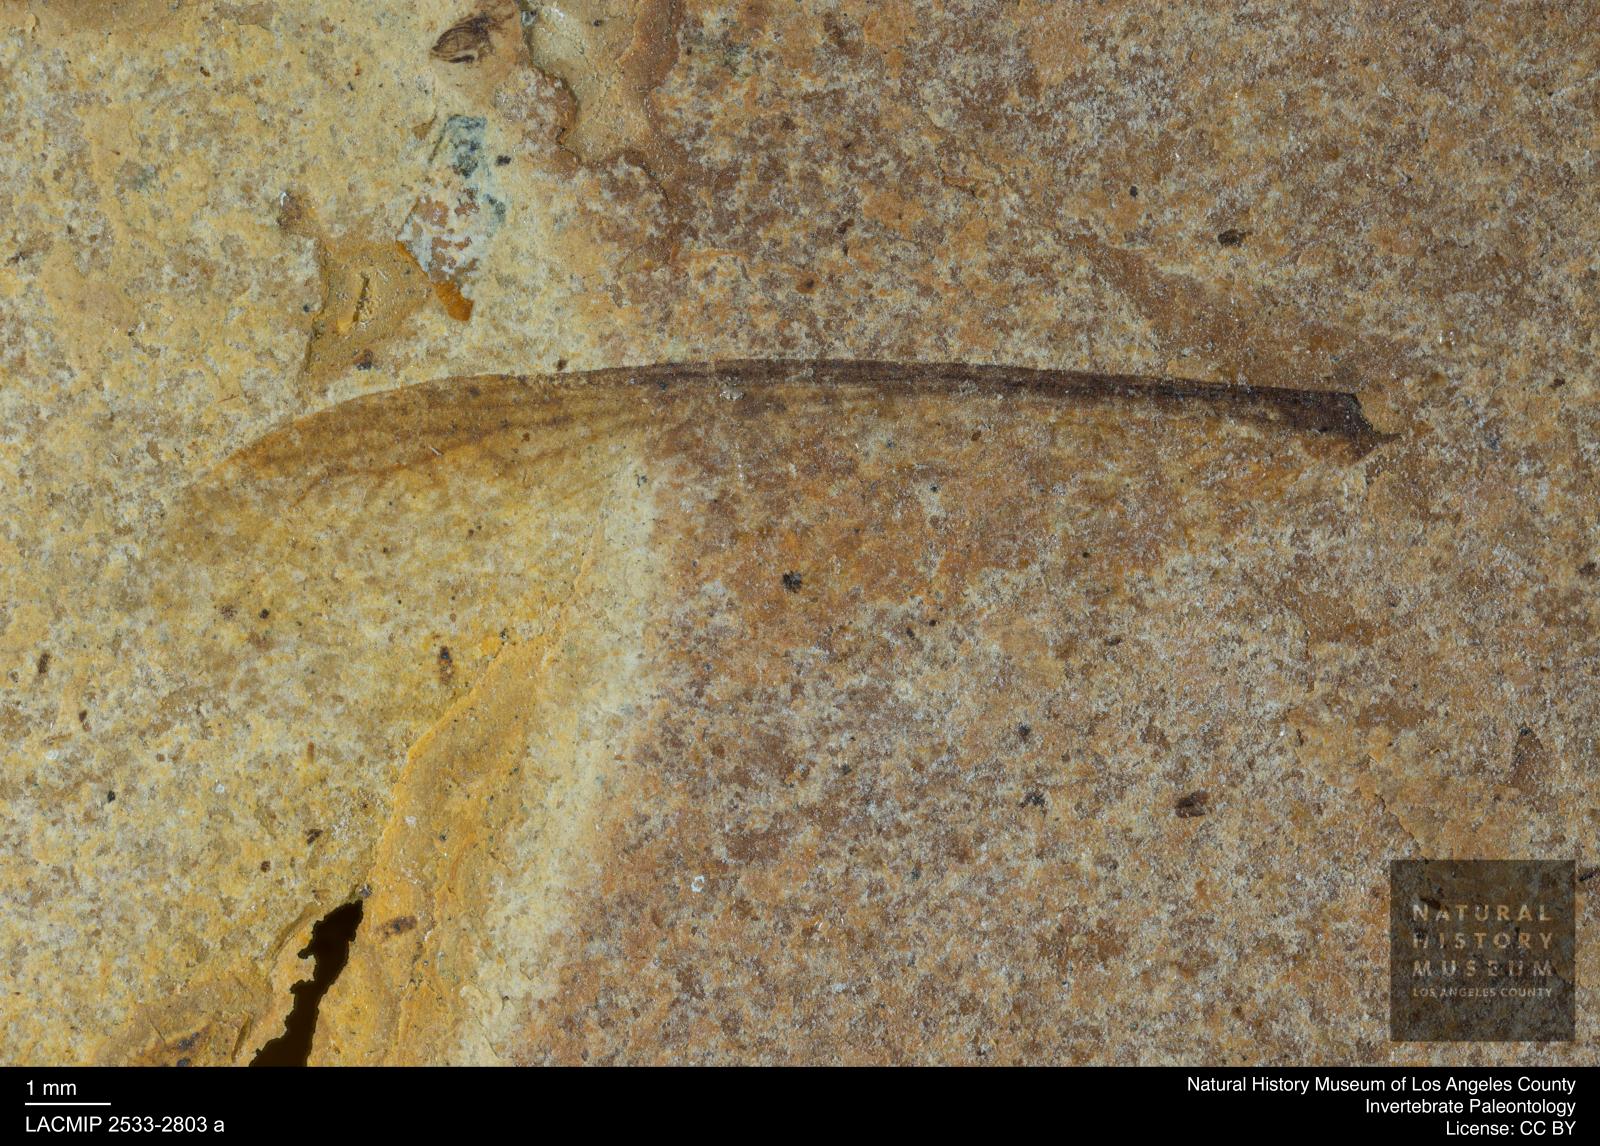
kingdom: Animalia
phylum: Arthropoda
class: Insecta
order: Blattodea
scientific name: Blattodea
